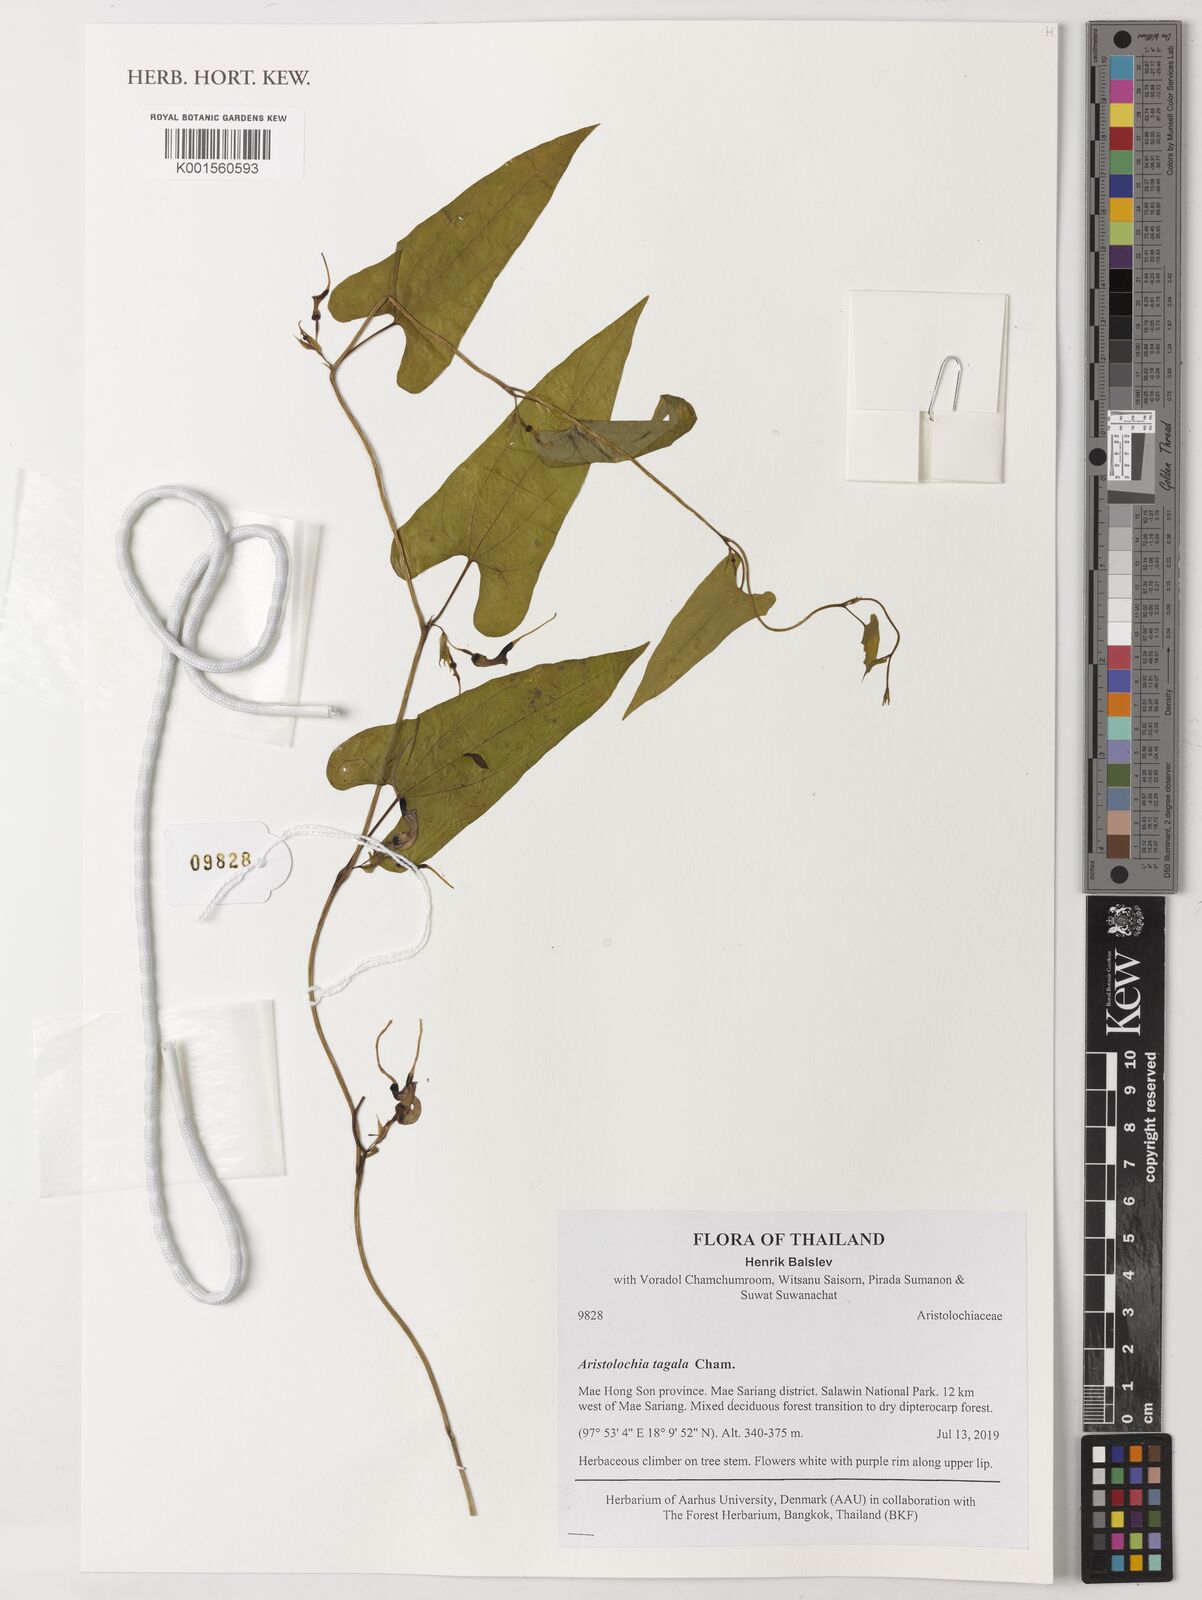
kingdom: Plantae
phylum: Tracheophyta
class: Magnoliopsida
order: Piperales
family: Aristolochiaceae
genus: Aristolochia
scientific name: Aristolochia acuminata
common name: Indian birthwort
